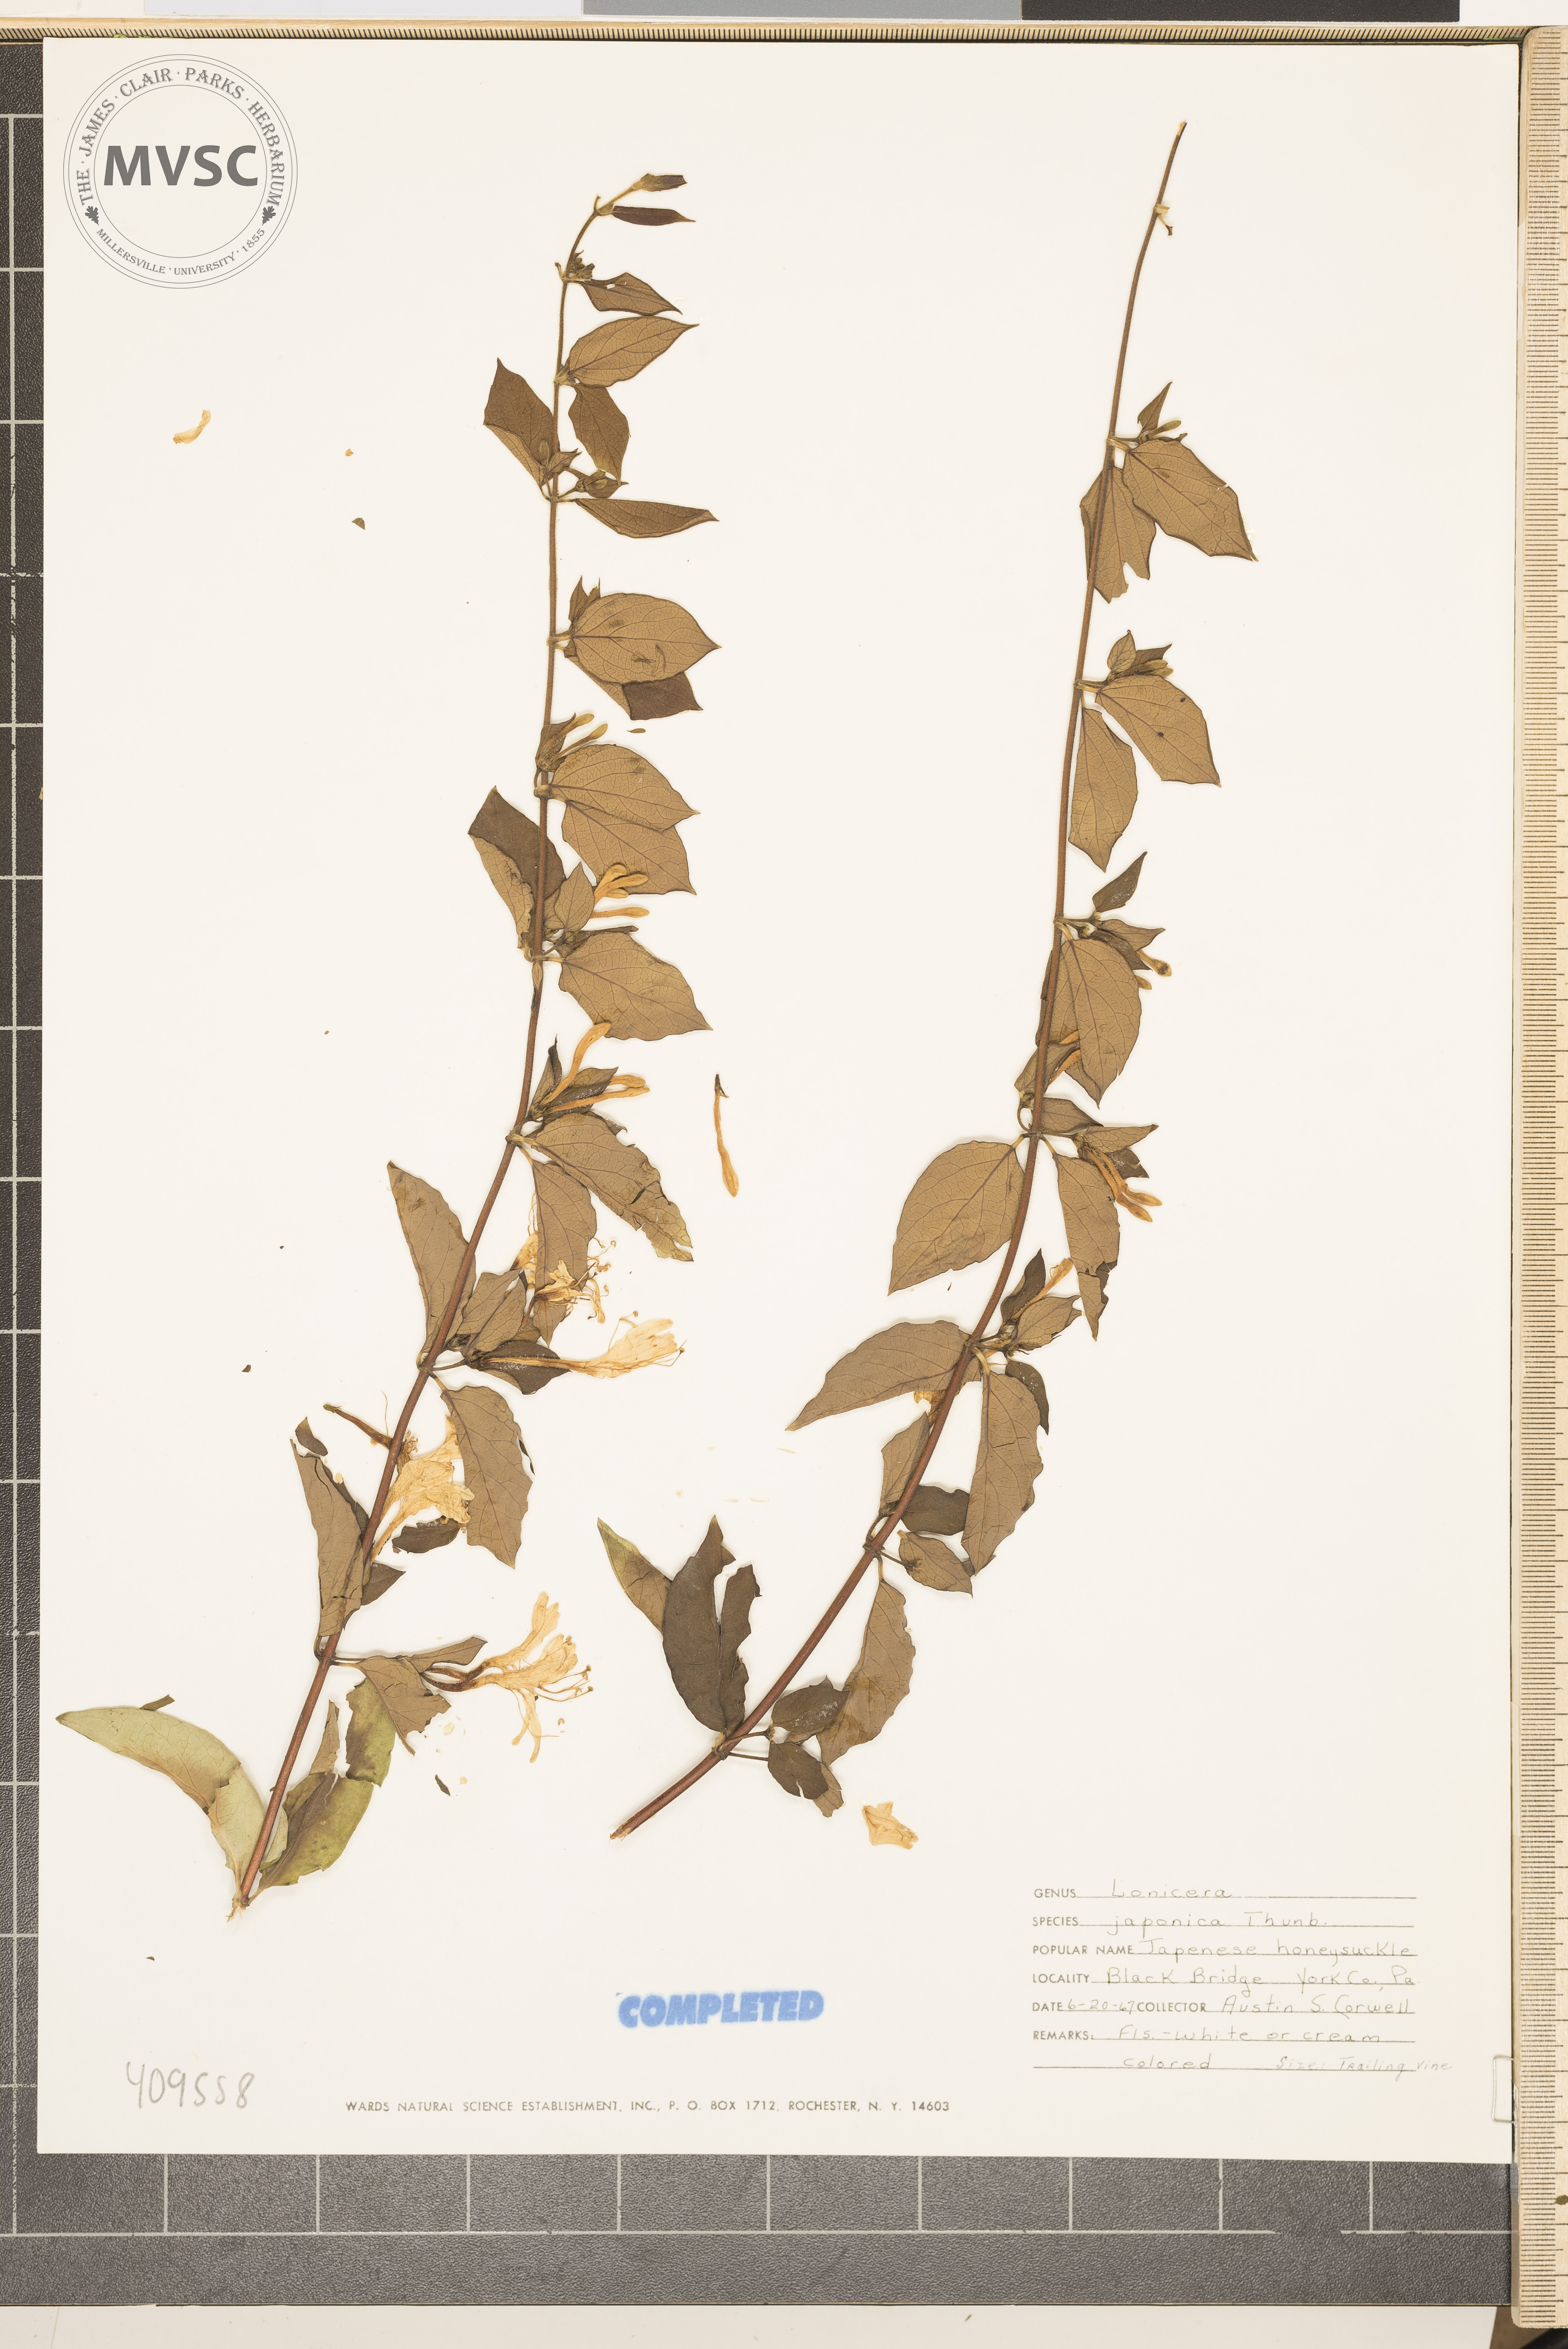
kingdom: Plantae
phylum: Tracheophyta
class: Magnoliopsida
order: Dipsacales
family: Caprifoliaceae
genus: Lonicera
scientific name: Lonicera japonica
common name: Japanese honeysuckle
